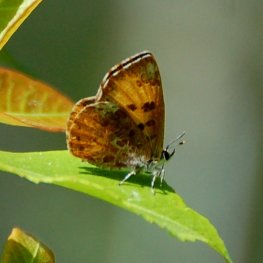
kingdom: Animalia
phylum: Arthropoda
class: Insecta
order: Lepidoptera
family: Lycaenidae
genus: Feniseca
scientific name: Feniseca tarquinius
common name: Harvester
